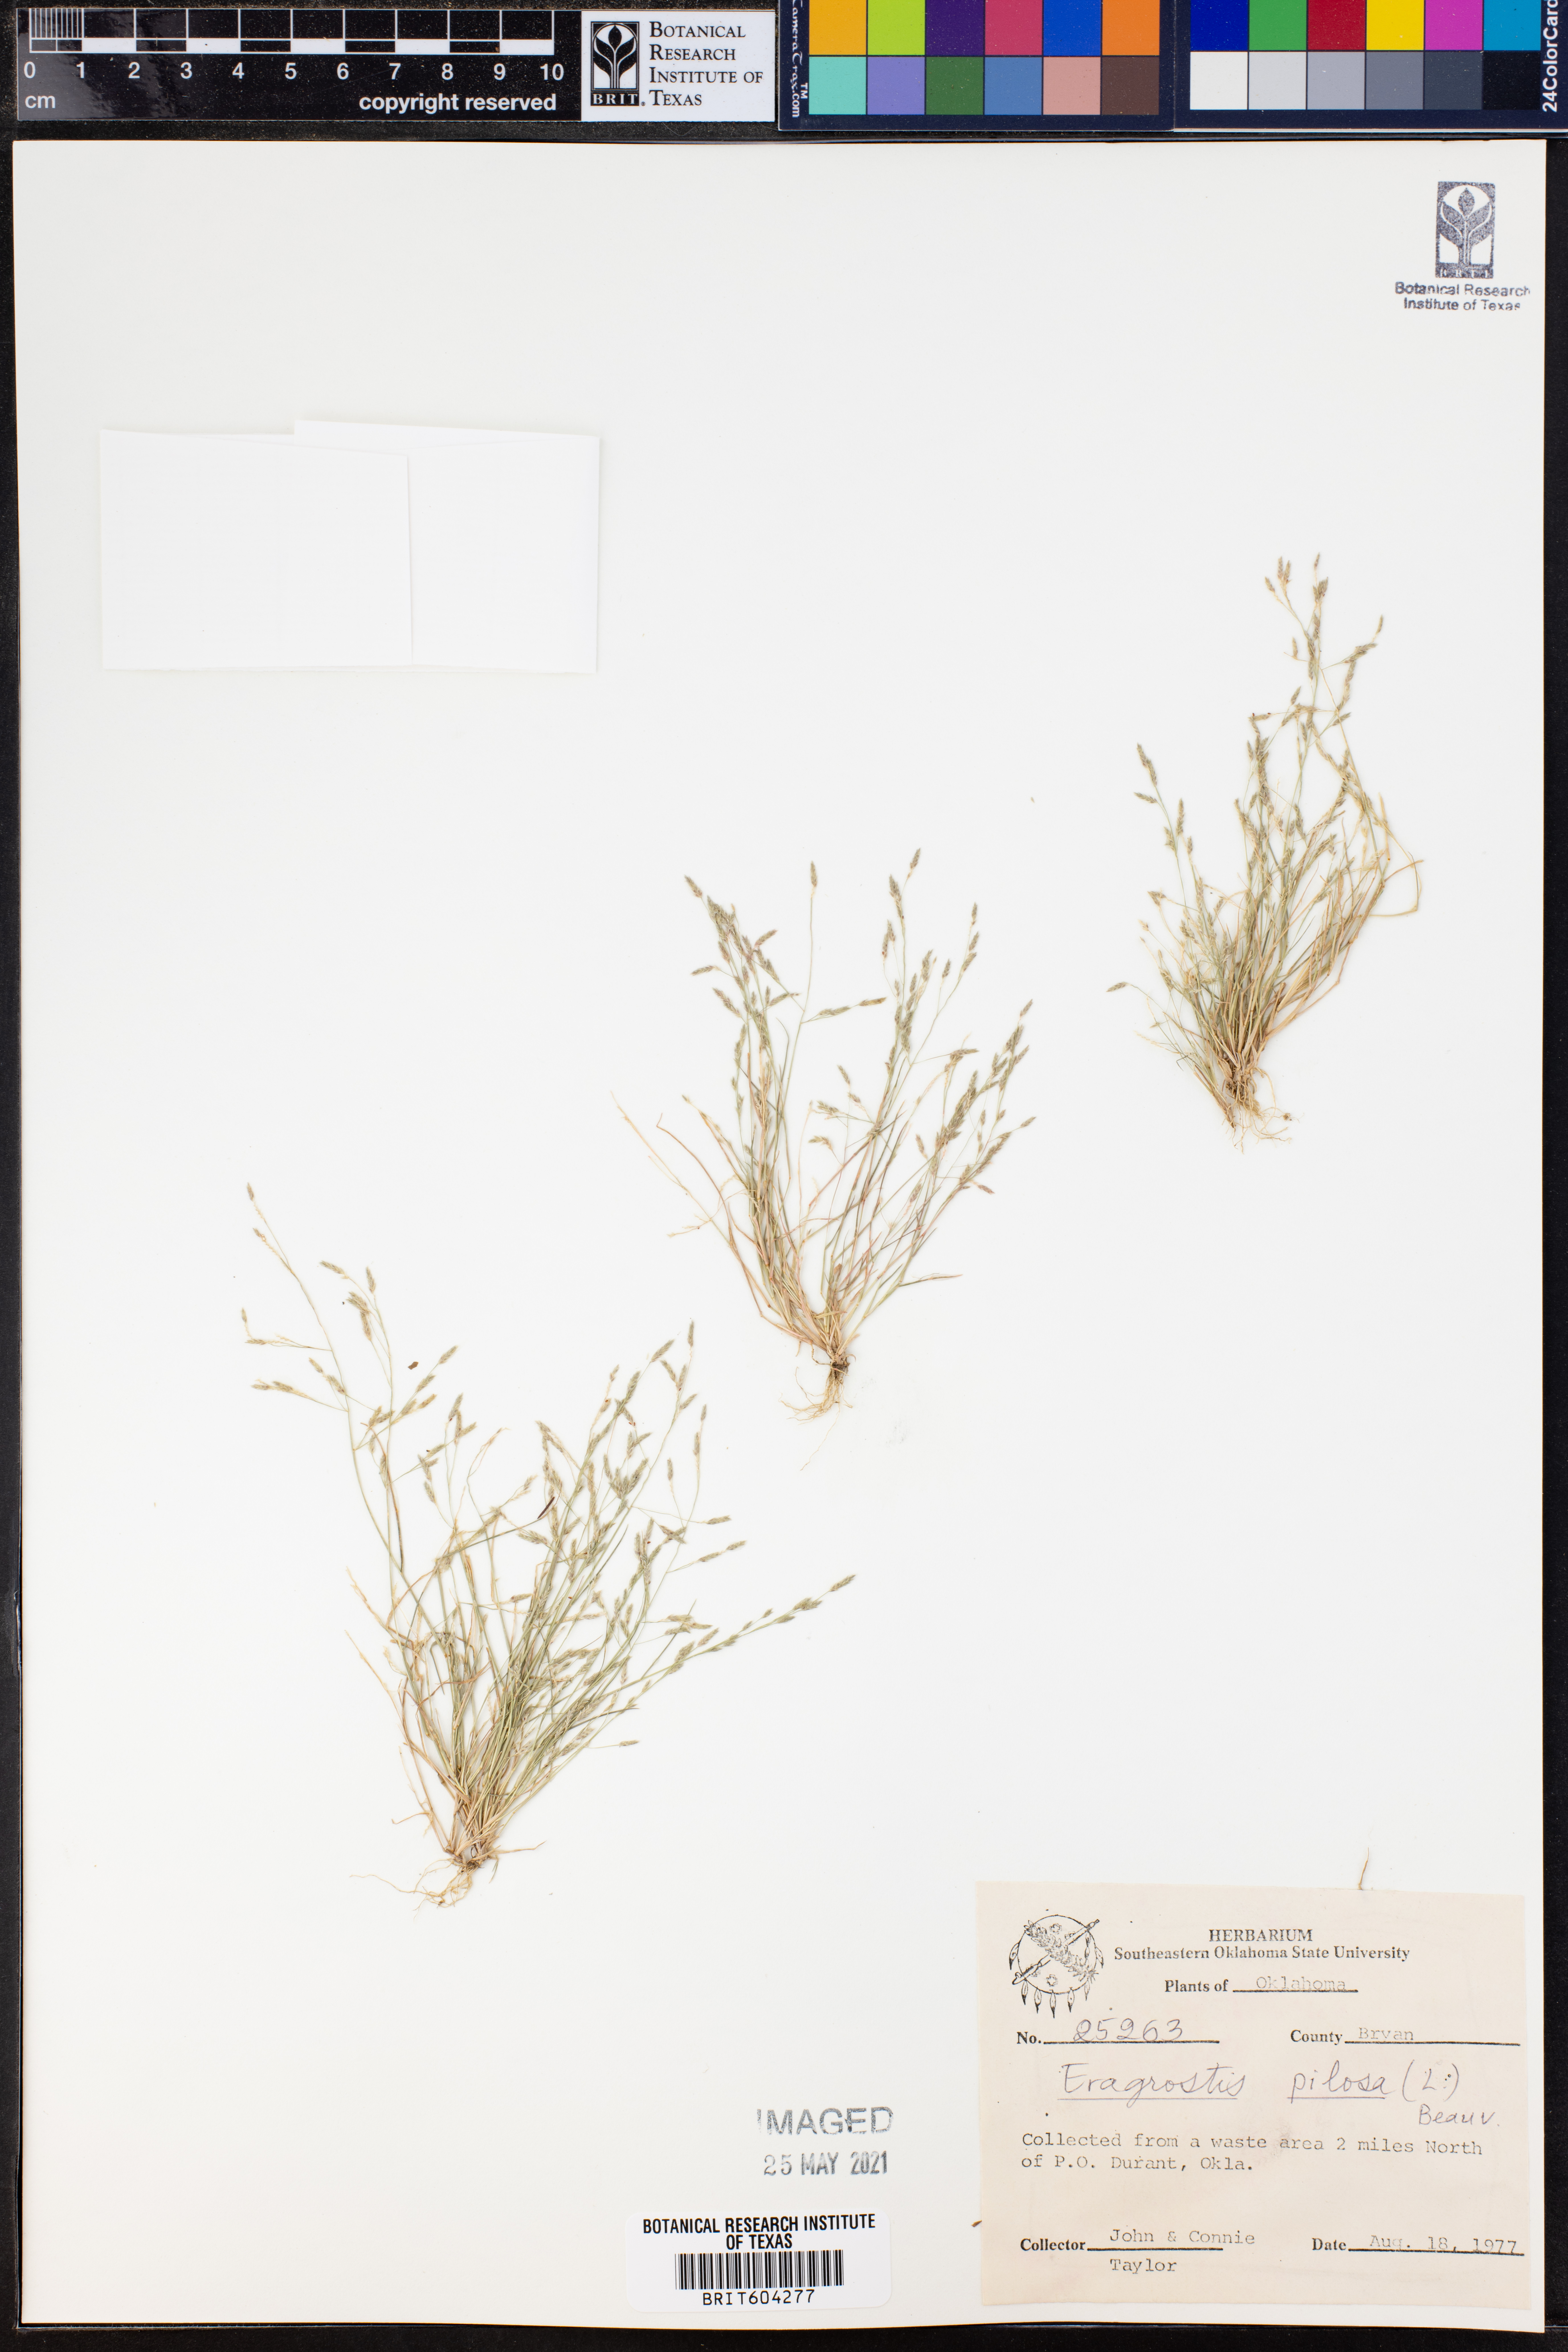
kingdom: Plantae
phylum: Tracheophyta
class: Liliopsida
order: Poales
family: Poaceae
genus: Eragrostis
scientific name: Eragrostis pilosa
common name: Indian lovegrass
